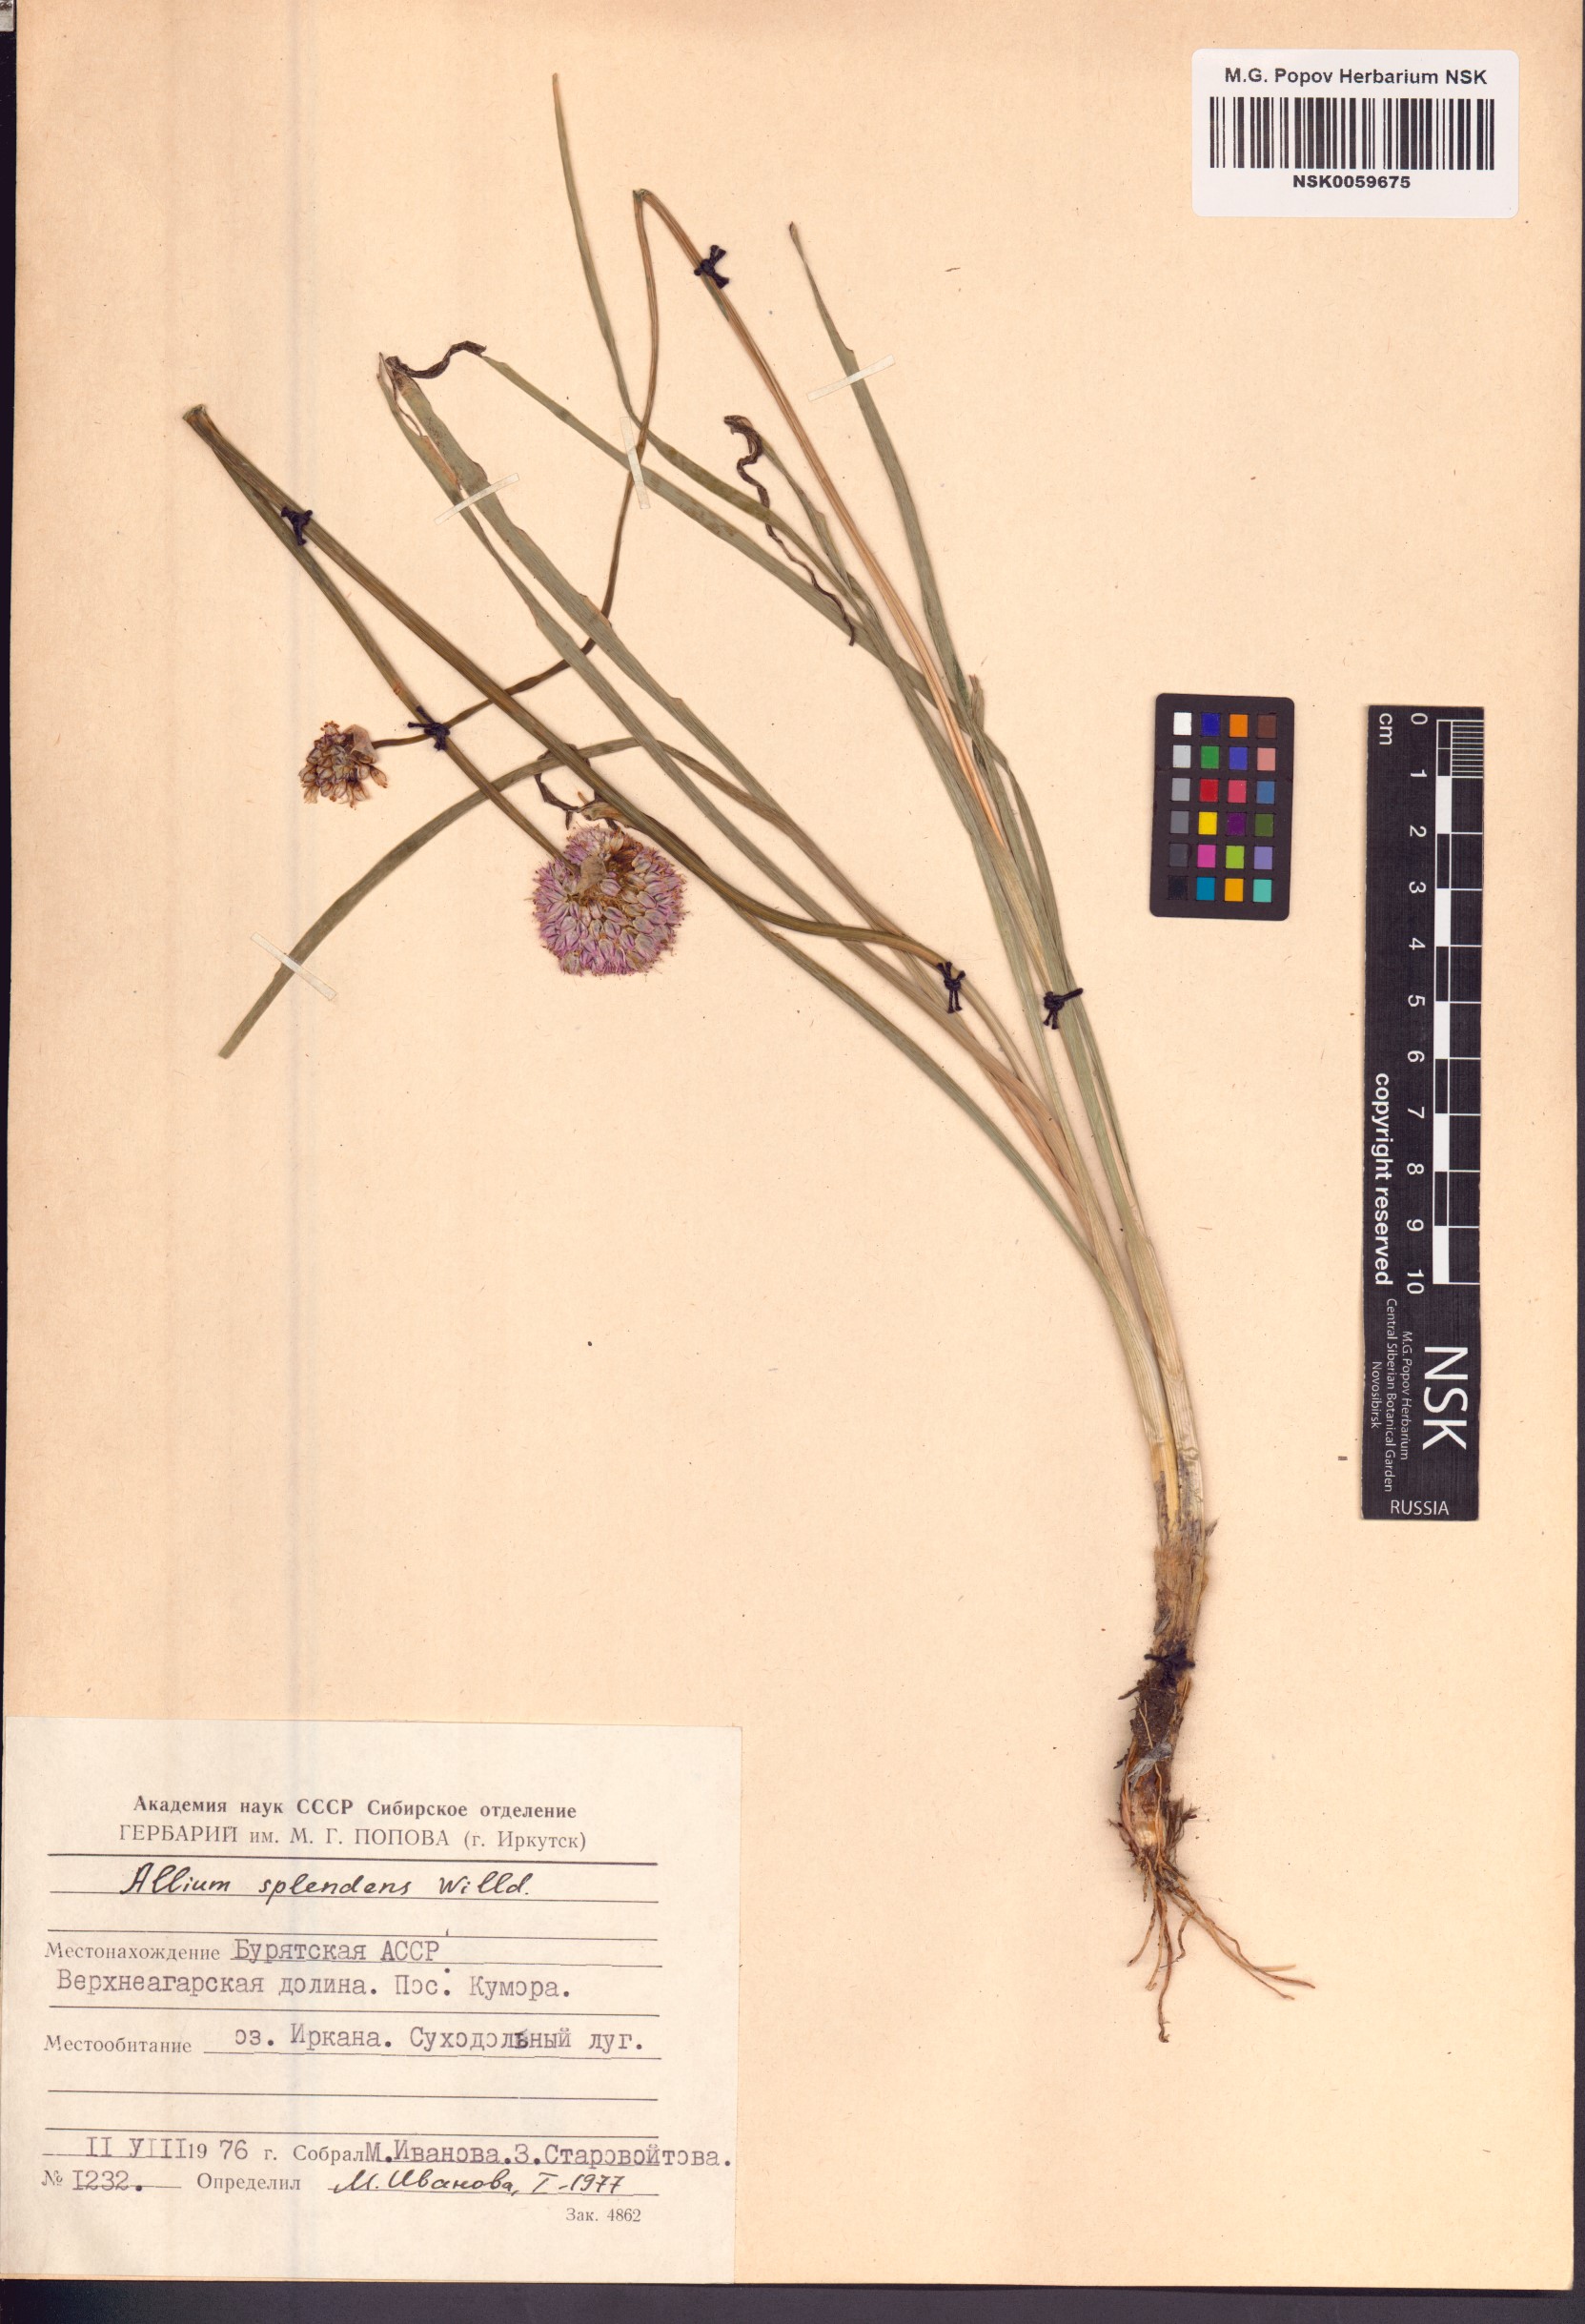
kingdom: Plantae
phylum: Tracheophyta
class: Liliopsida
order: Asparagales
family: Amaryllidaceae
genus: Allium
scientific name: Allium splendens
